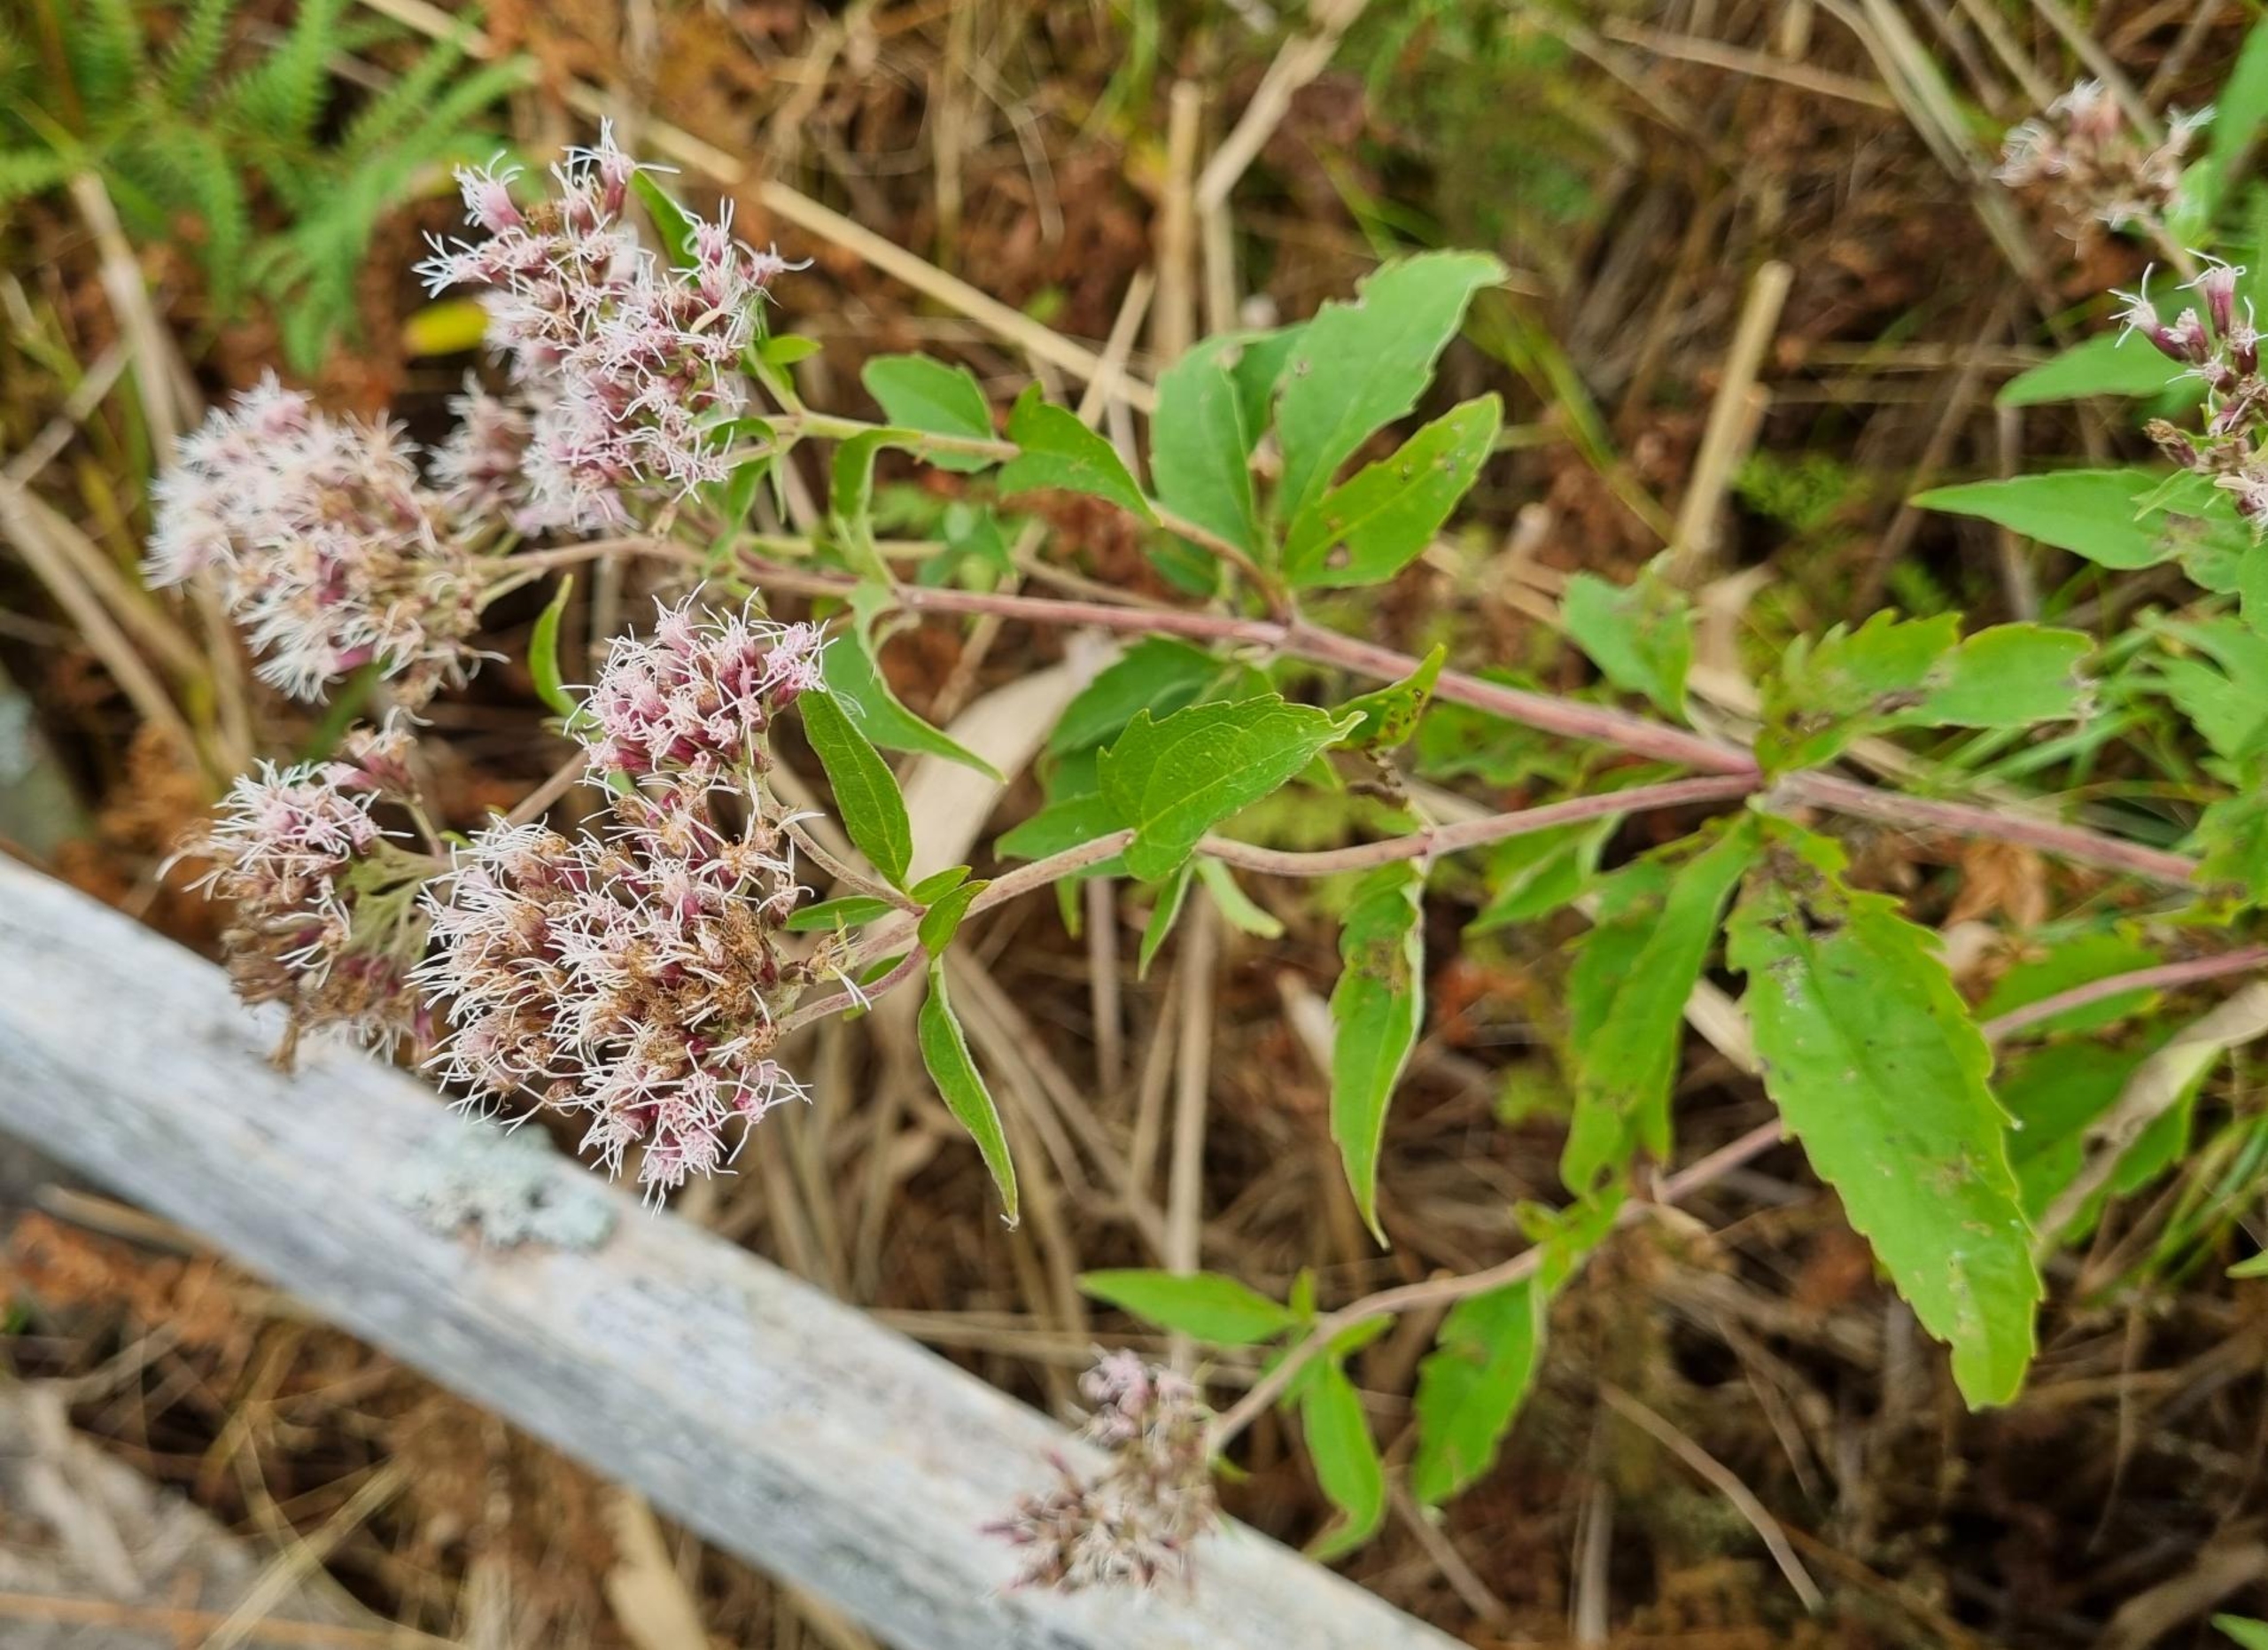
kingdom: Plantae
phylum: Tracheophyta
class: Magnoliopsida
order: Asterales
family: Asteraceae
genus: Eupatorium
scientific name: Eupatorium cannabinum
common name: Hjortetrøst
